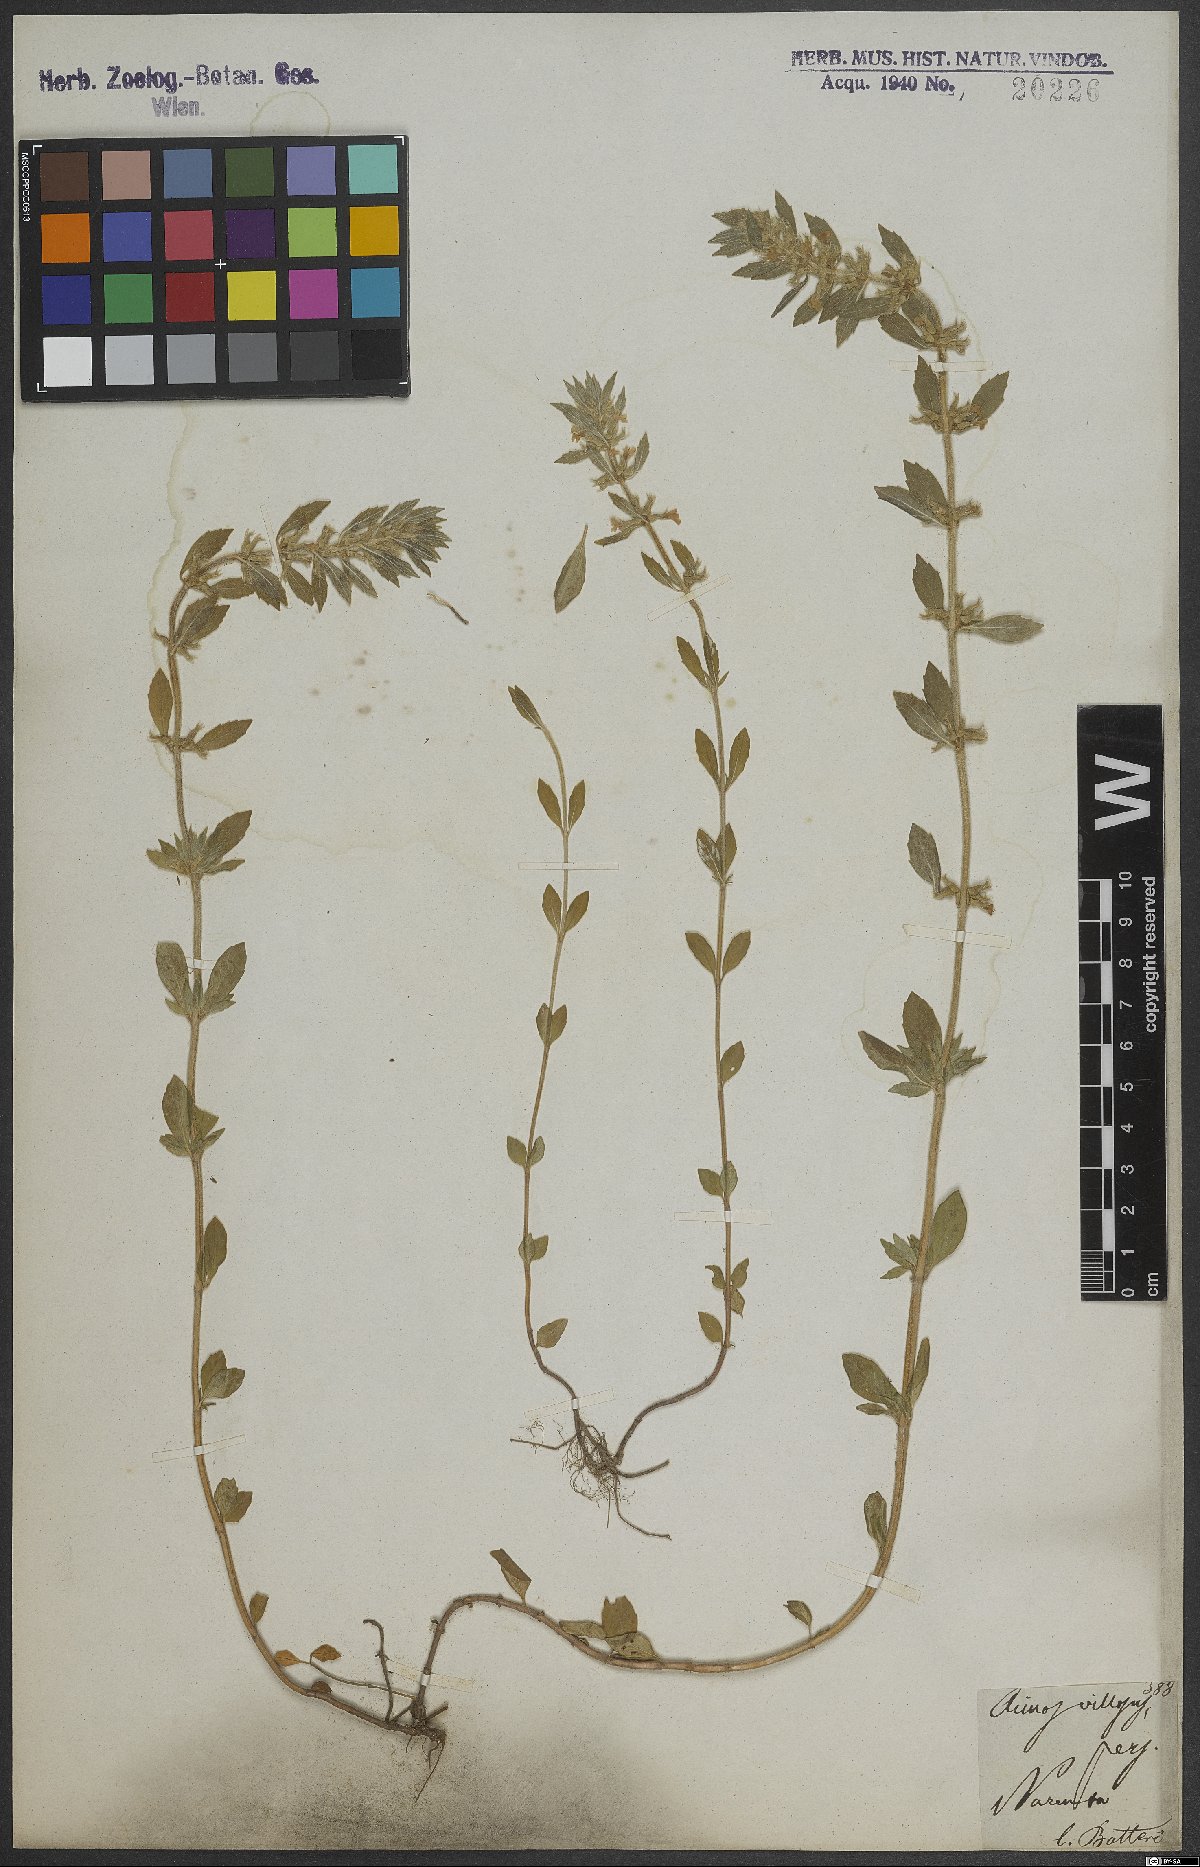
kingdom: Plantae
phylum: Tracheophyta
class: Magnoliopsida
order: Lamiales
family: Lamiaceae
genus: Clinopodium
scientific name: Clinopodium acinos
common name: Basil thyme
